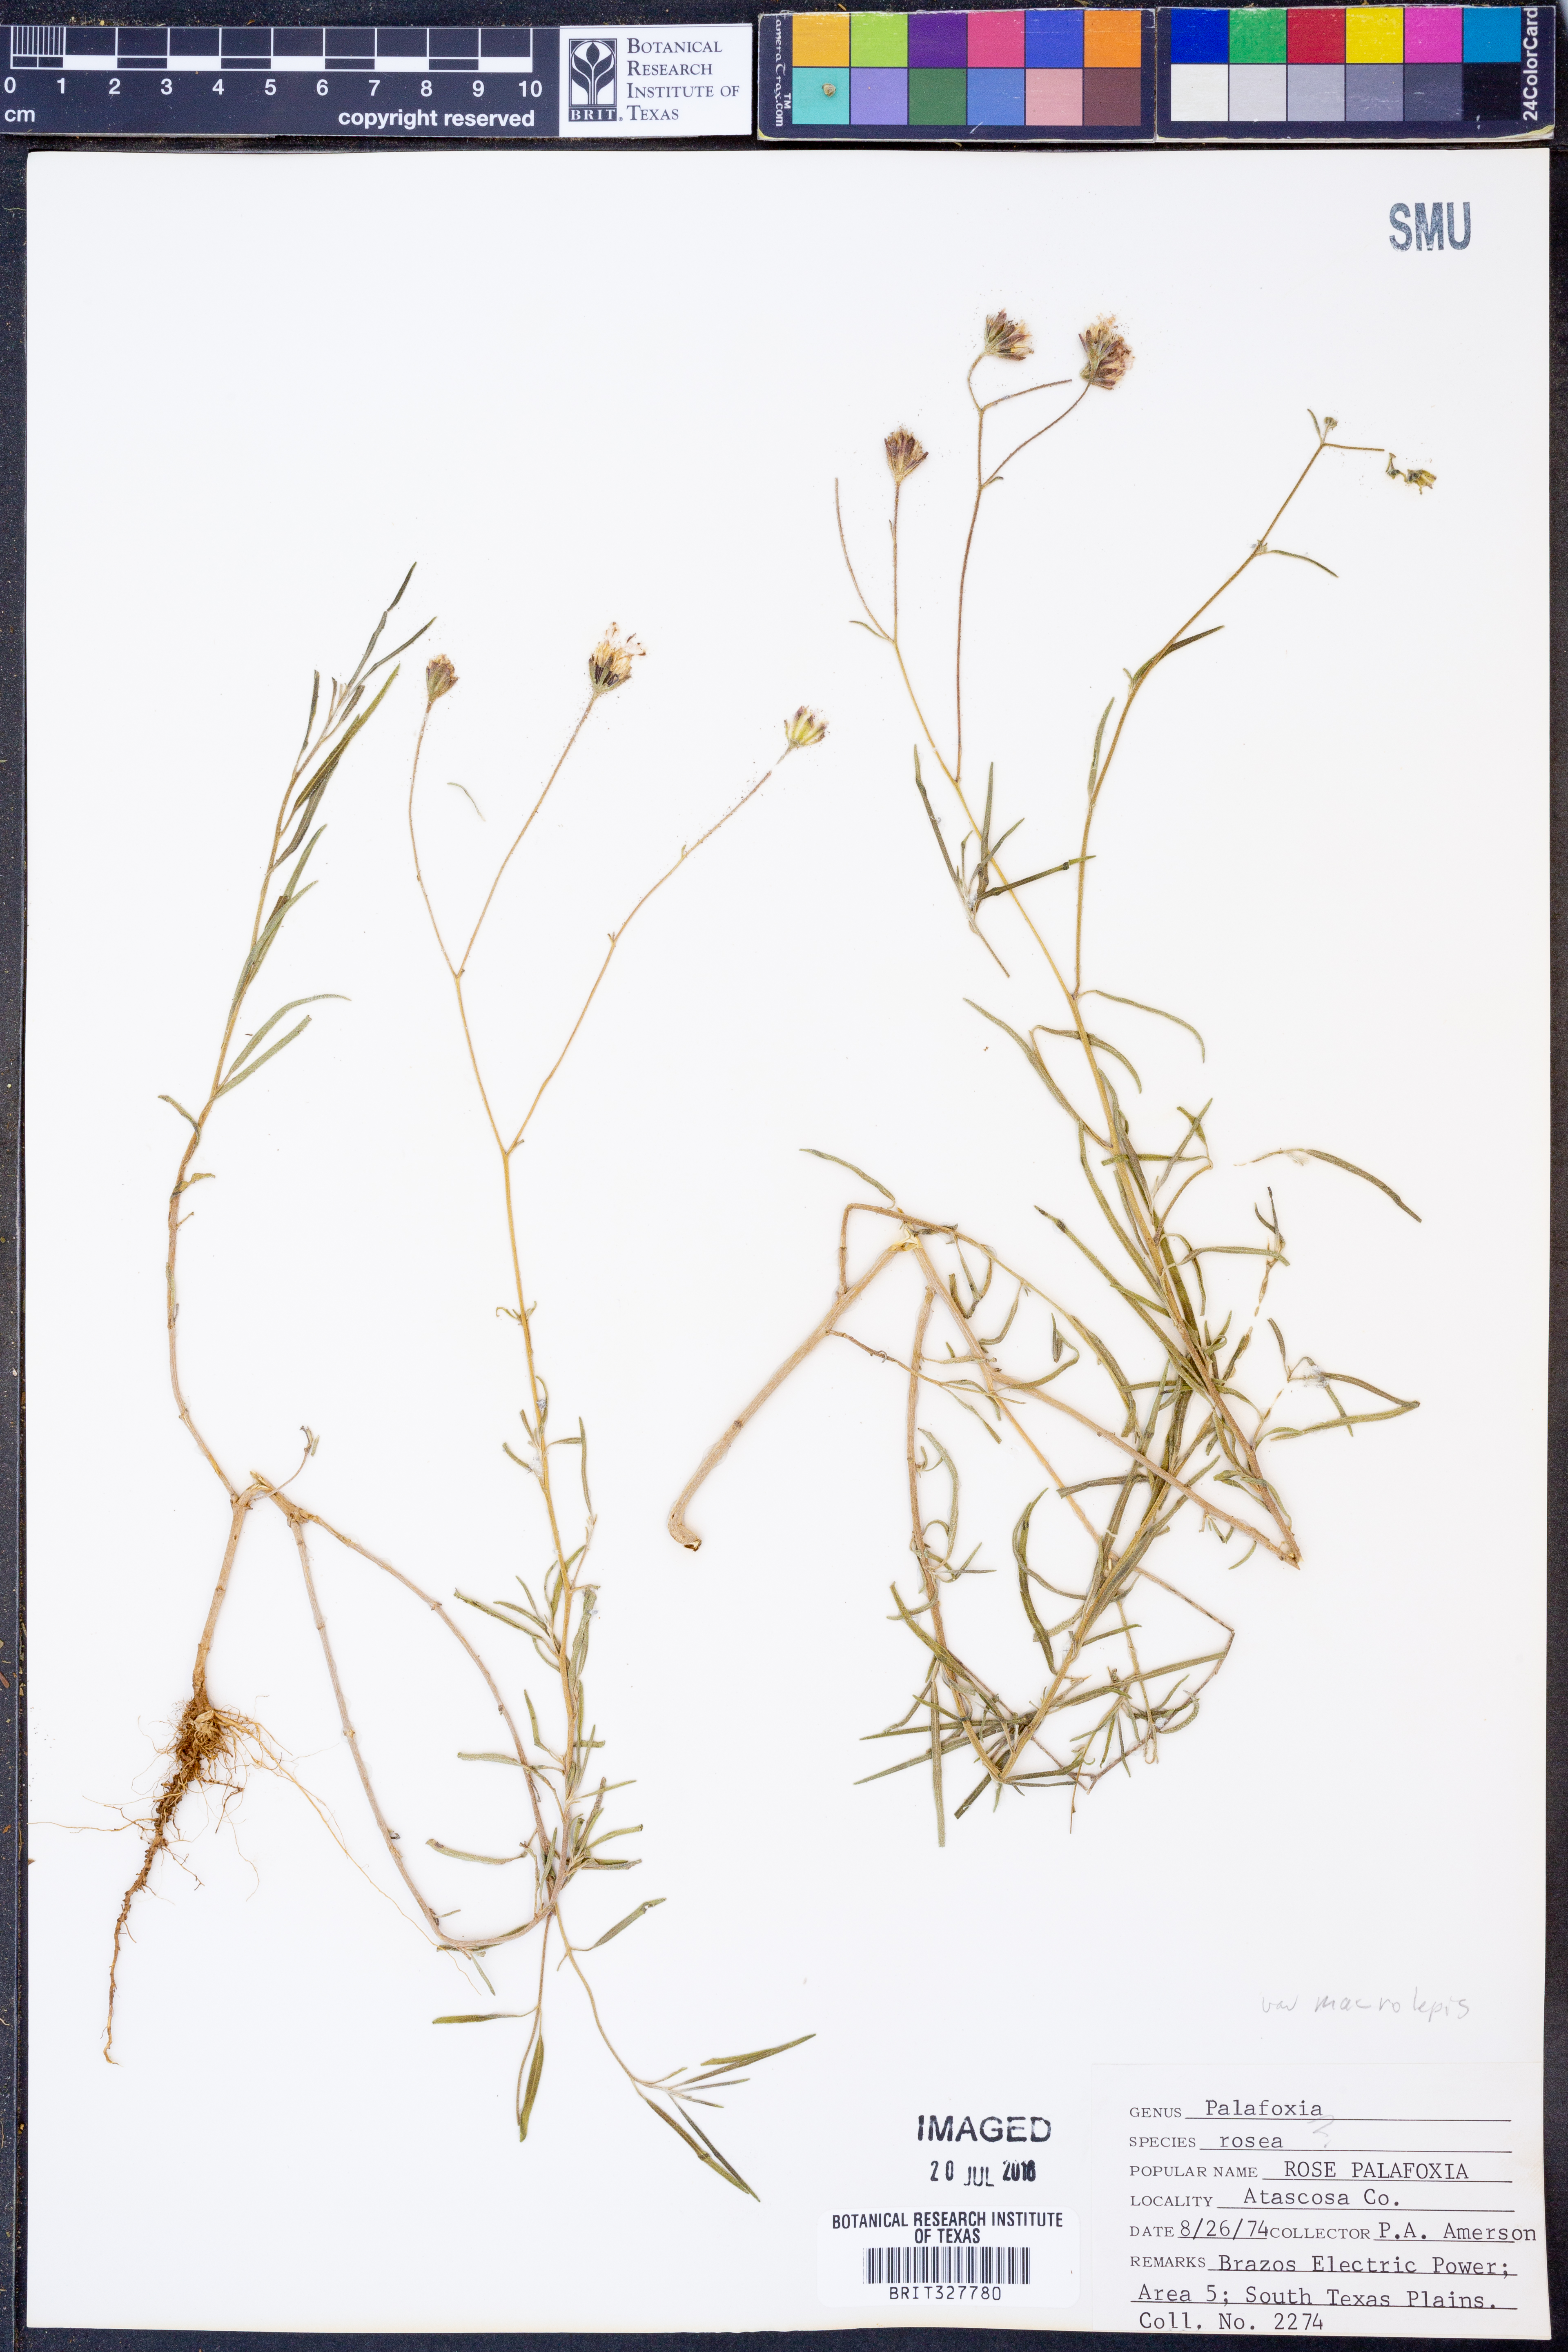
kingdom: Plantae
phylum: Tracheophyta
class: Magnoliopsida
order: Asterales
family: Asteraceae
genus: Palafoxia
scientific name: Palafoxia rosea
